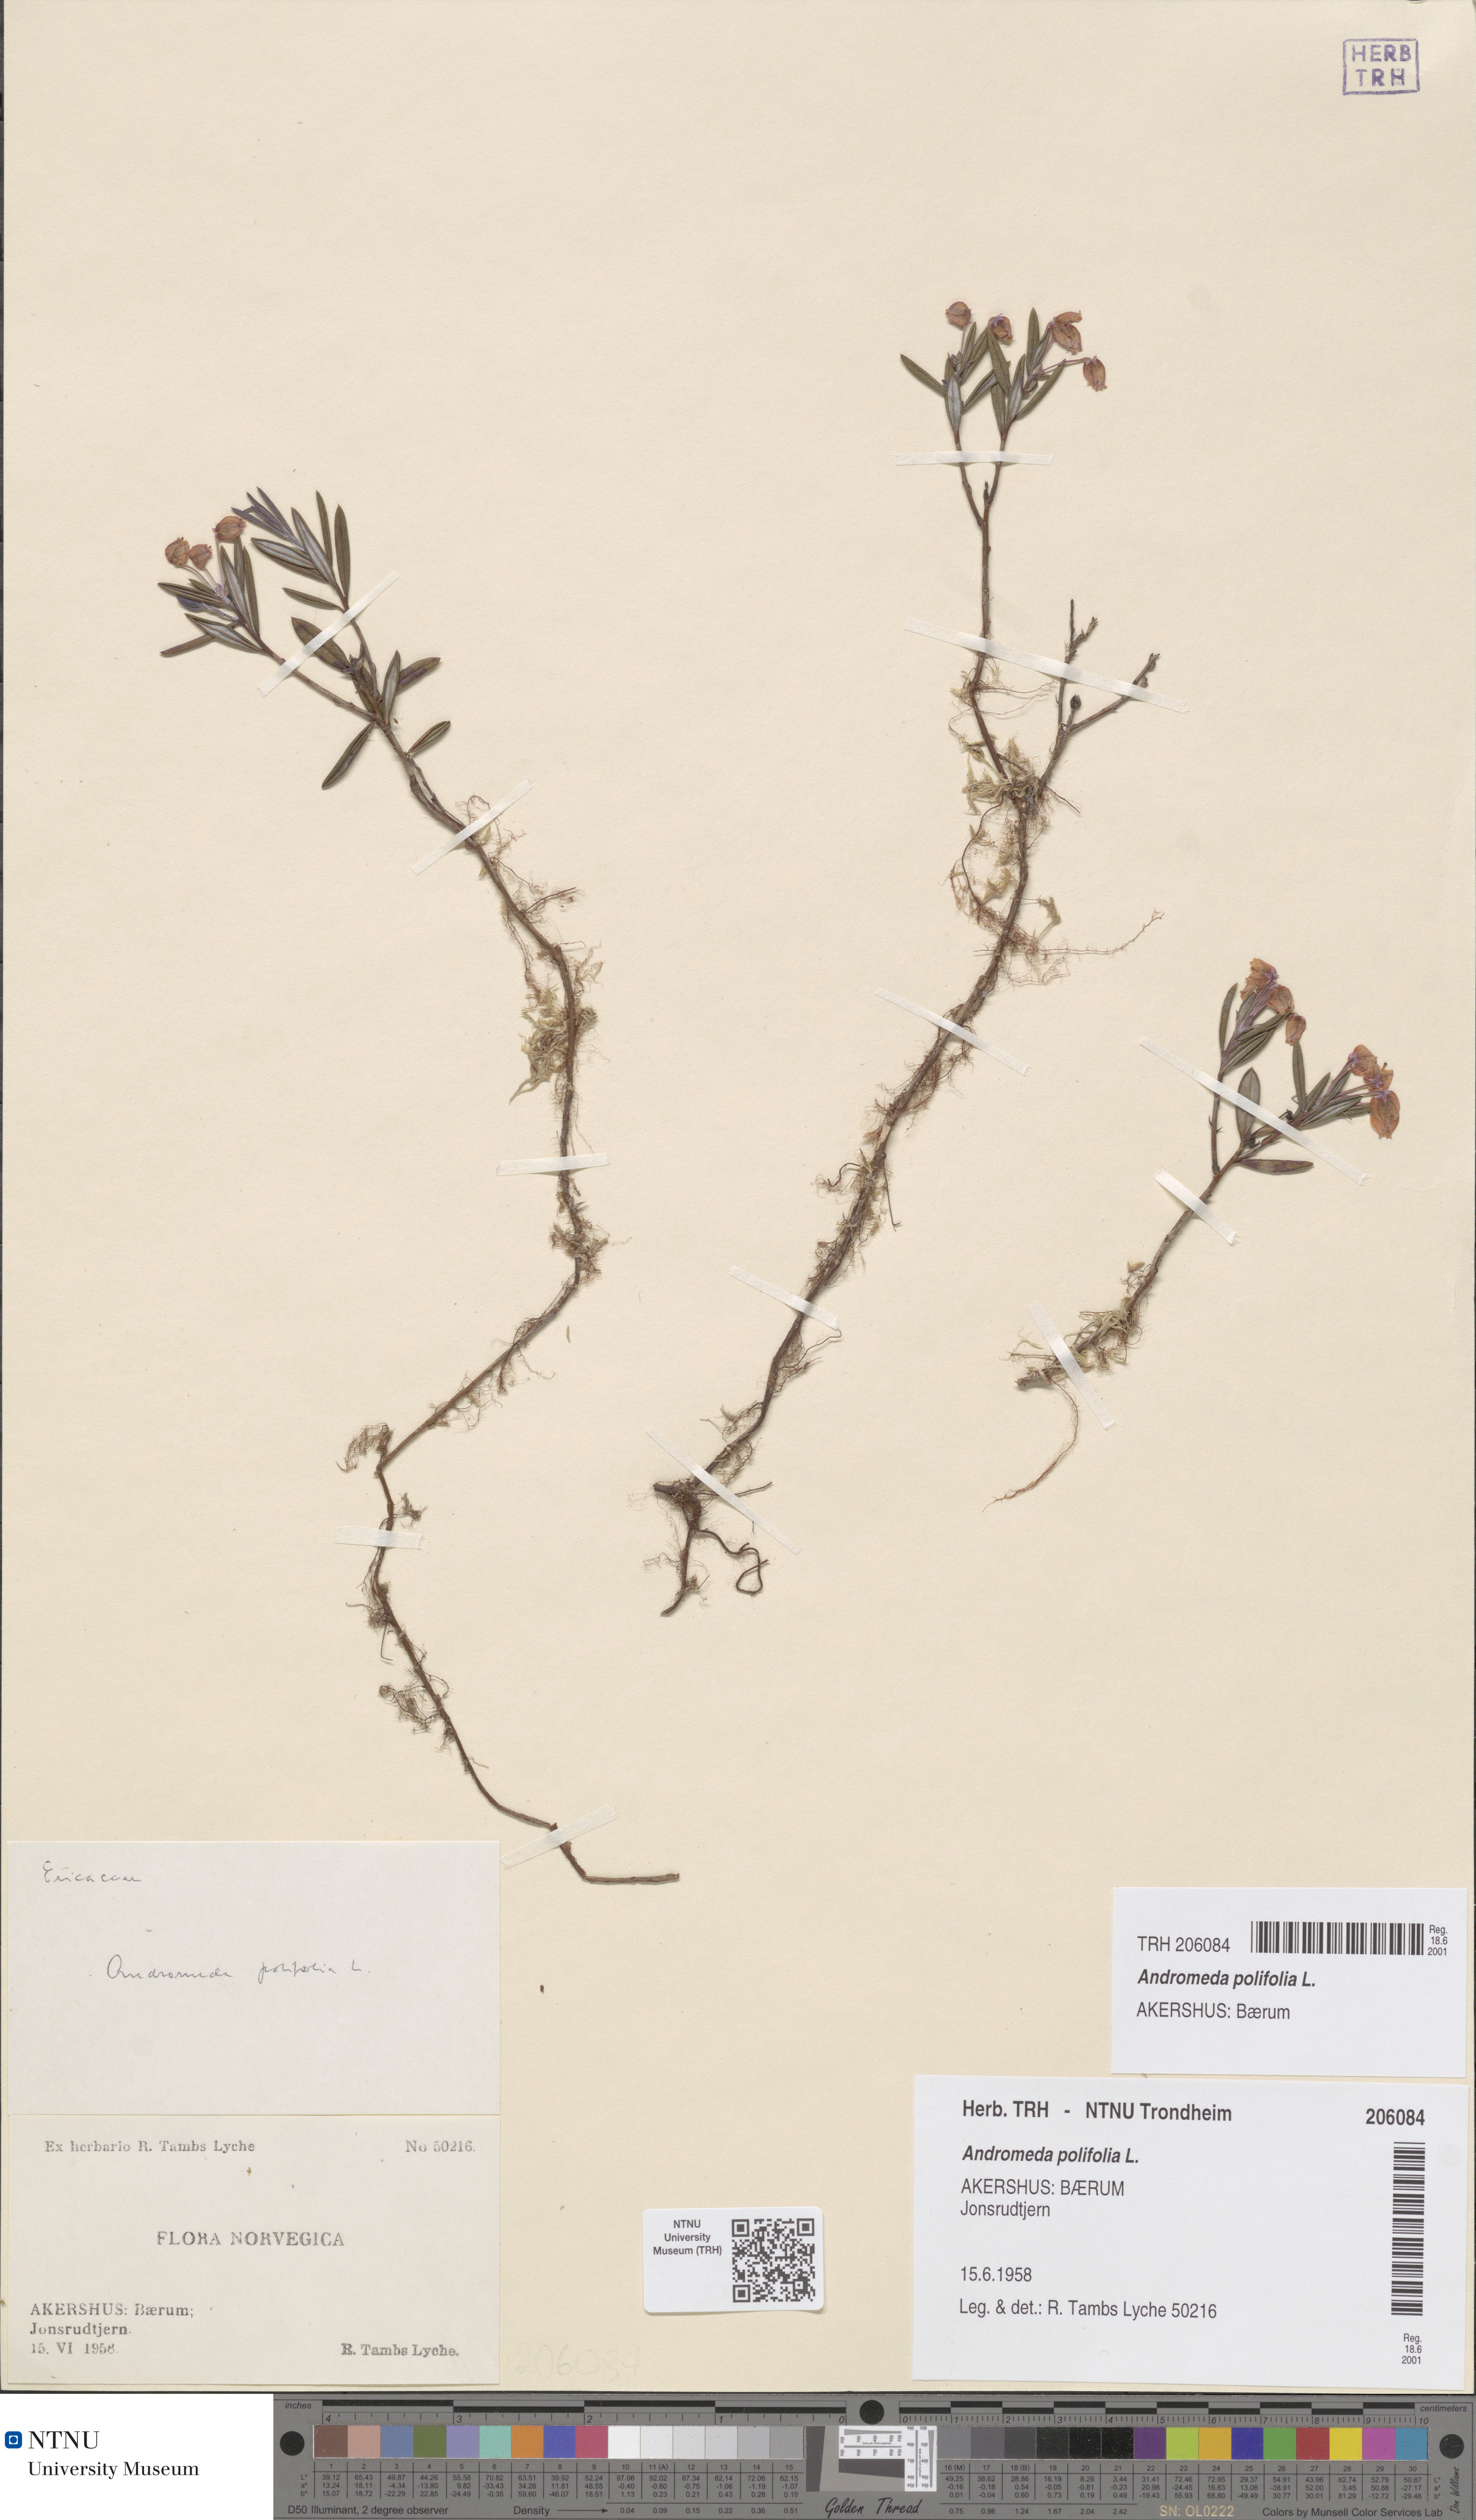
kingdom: Plantae
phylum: Tracheophyta
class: Magnoliopsida
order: Ericales
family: Ericaceae
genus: Andromeda
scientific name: Andromeda polifolia
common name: Bog-rosemary
